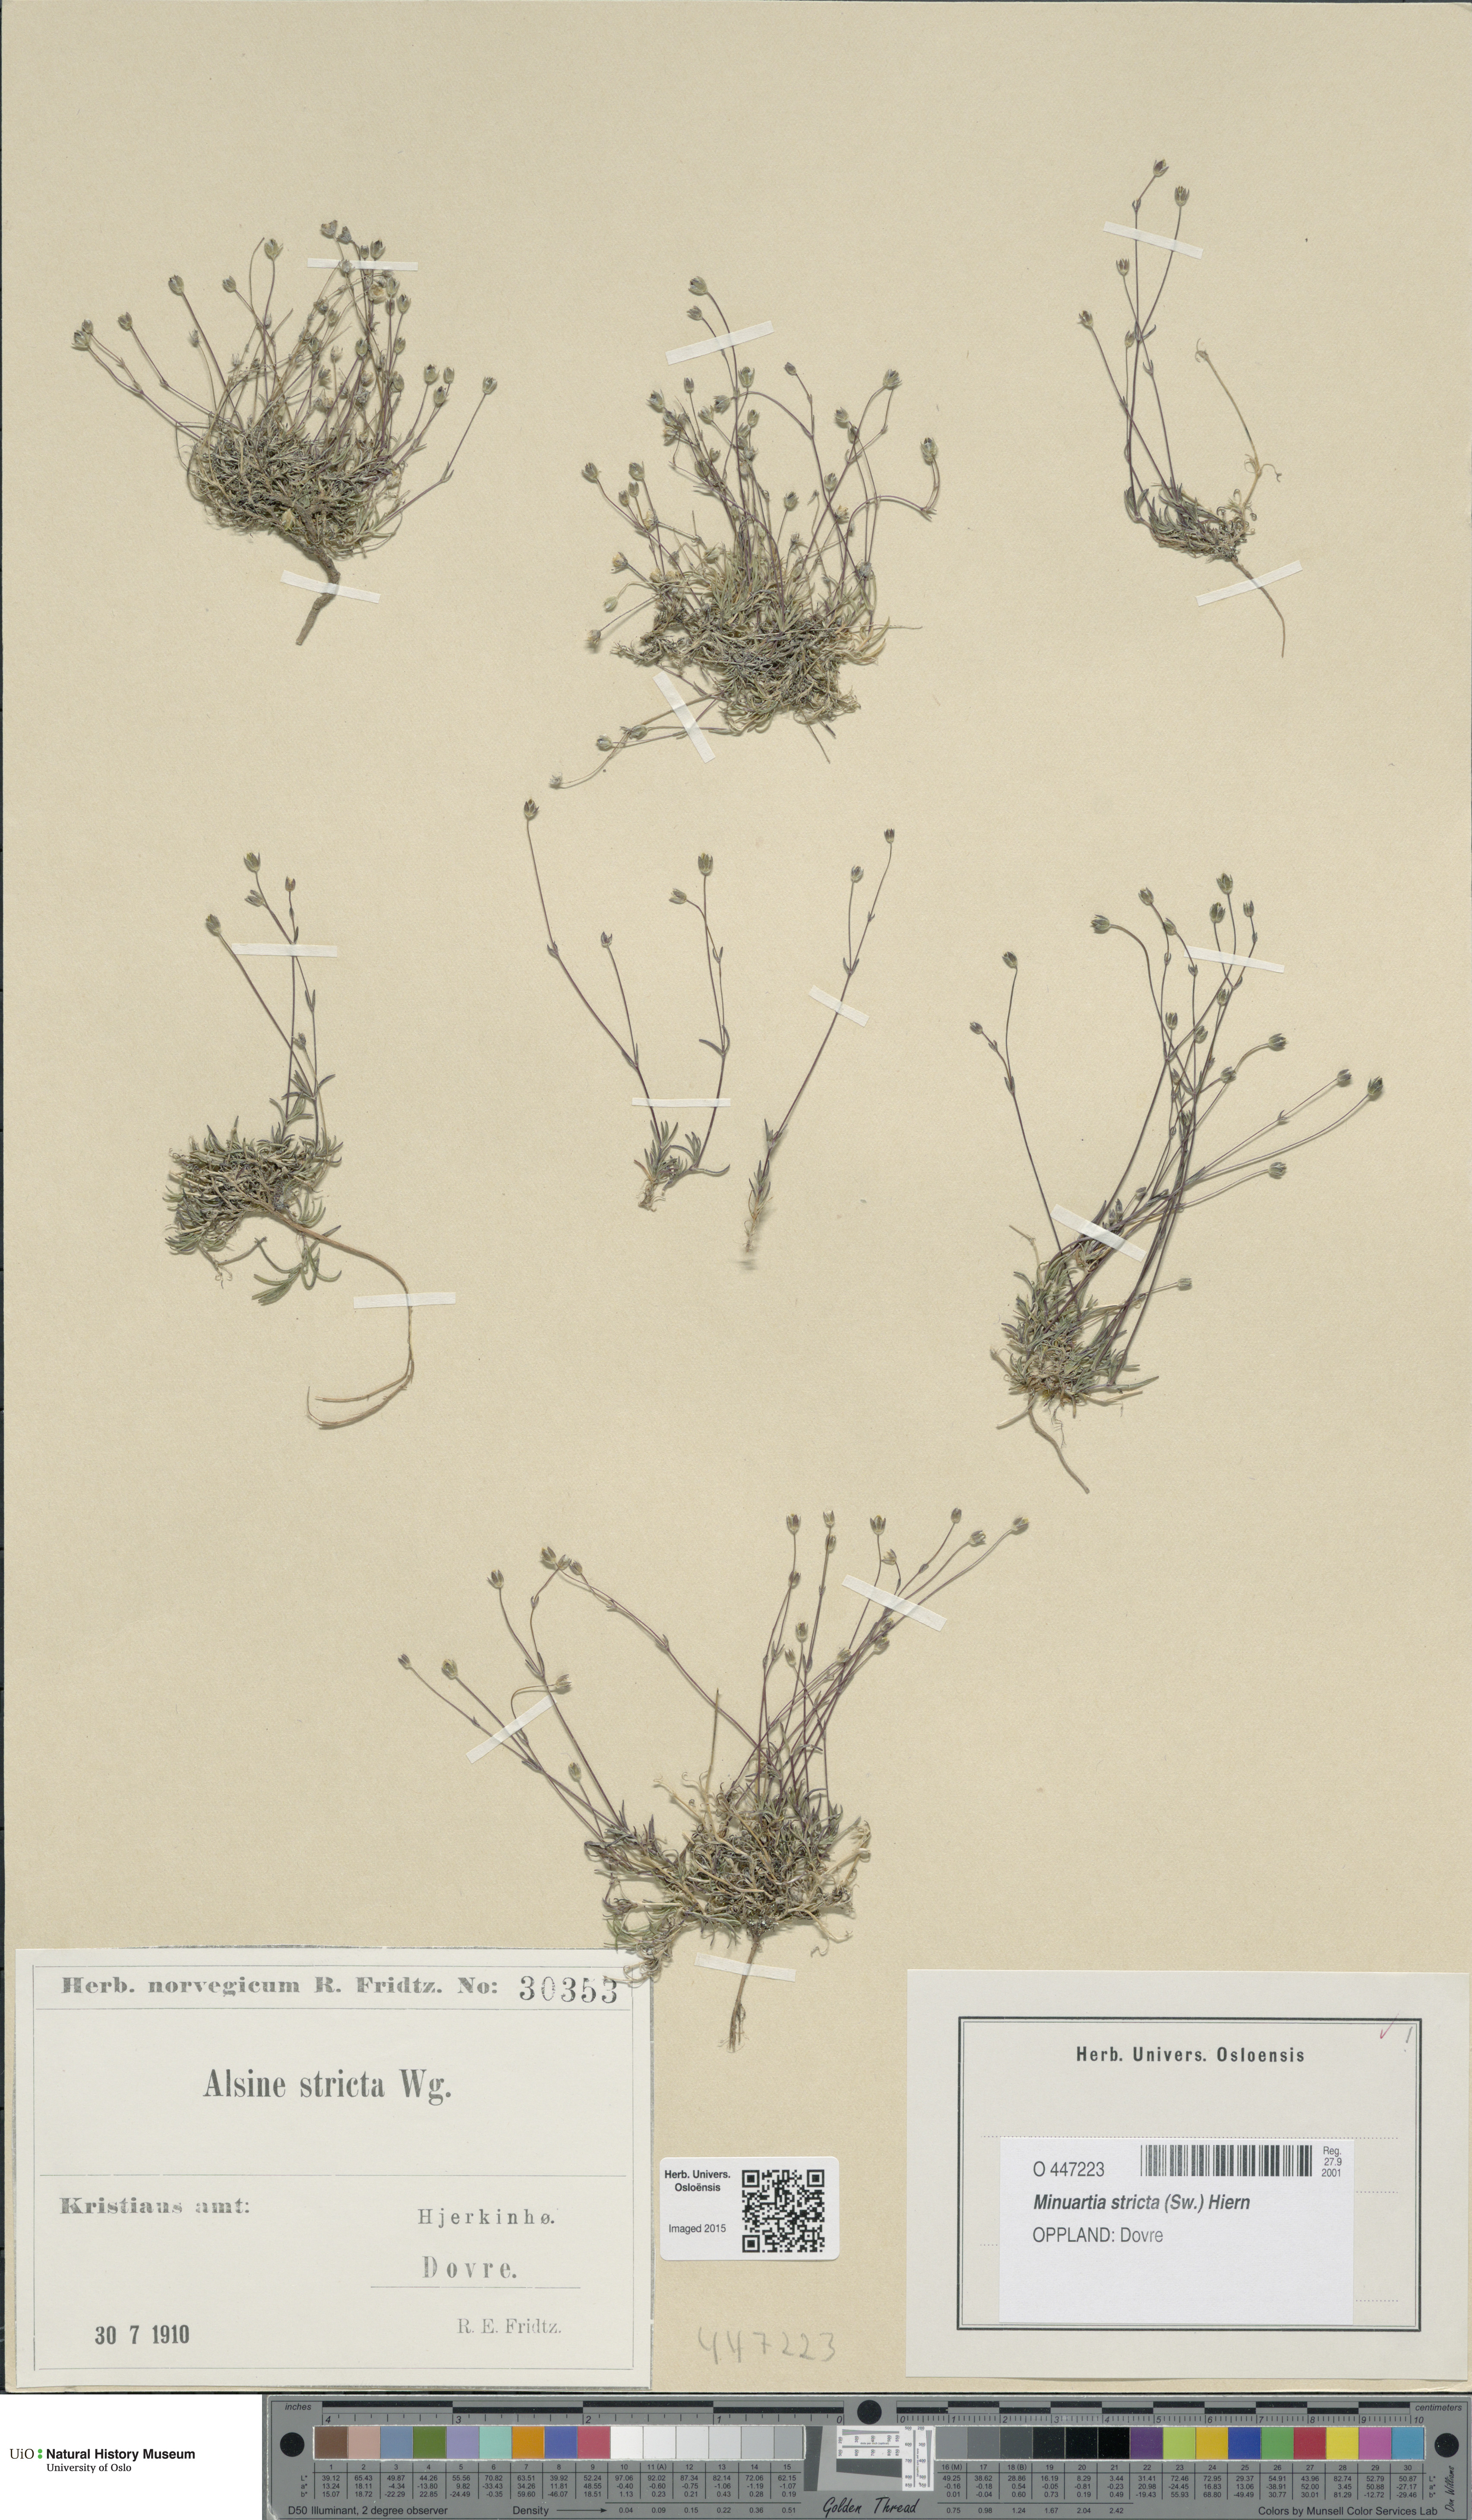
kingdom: Plantae
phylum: Tracheophyta
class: Magnoliopsida
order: Caryophyllales
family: Caryophyllaceae
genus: Sabulina
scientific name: Sabulina stricta
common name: Bog sandwort
